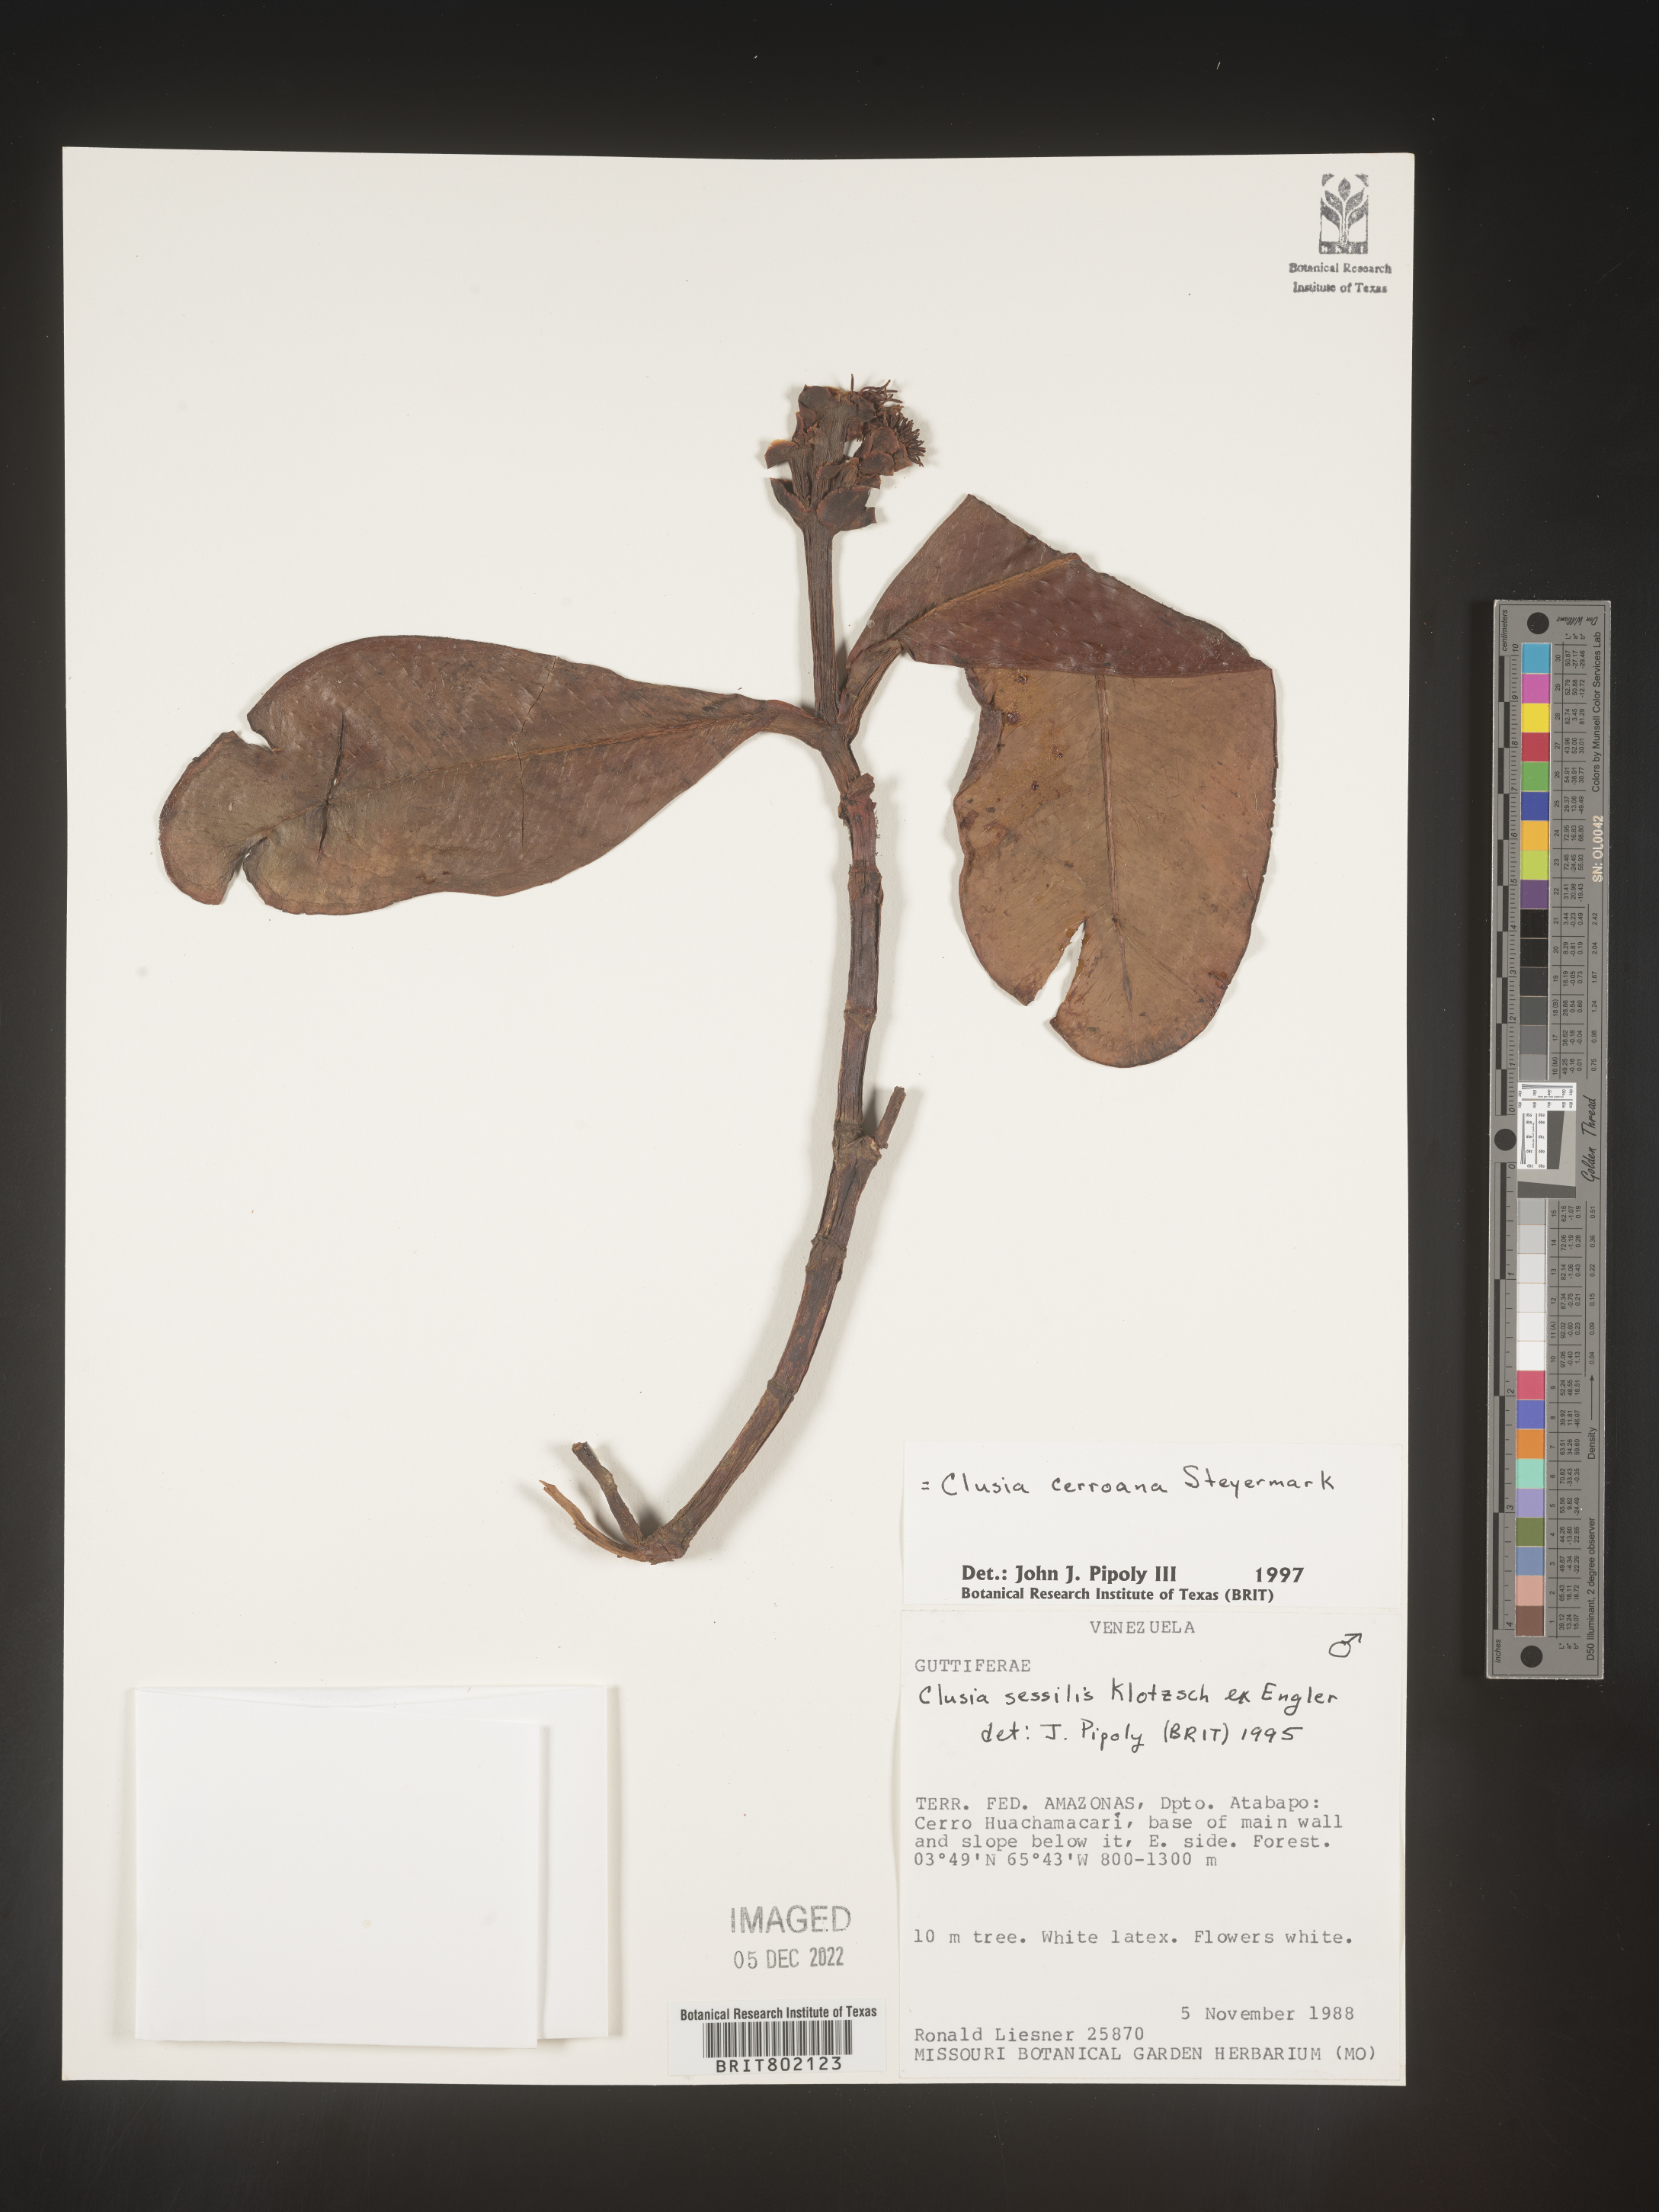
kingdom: Plantae
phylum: Tracheophyta
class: Magnoliopsida
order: Malpighiales
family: Clusiaceae
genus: Clusia
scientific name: Clusia cerroana
